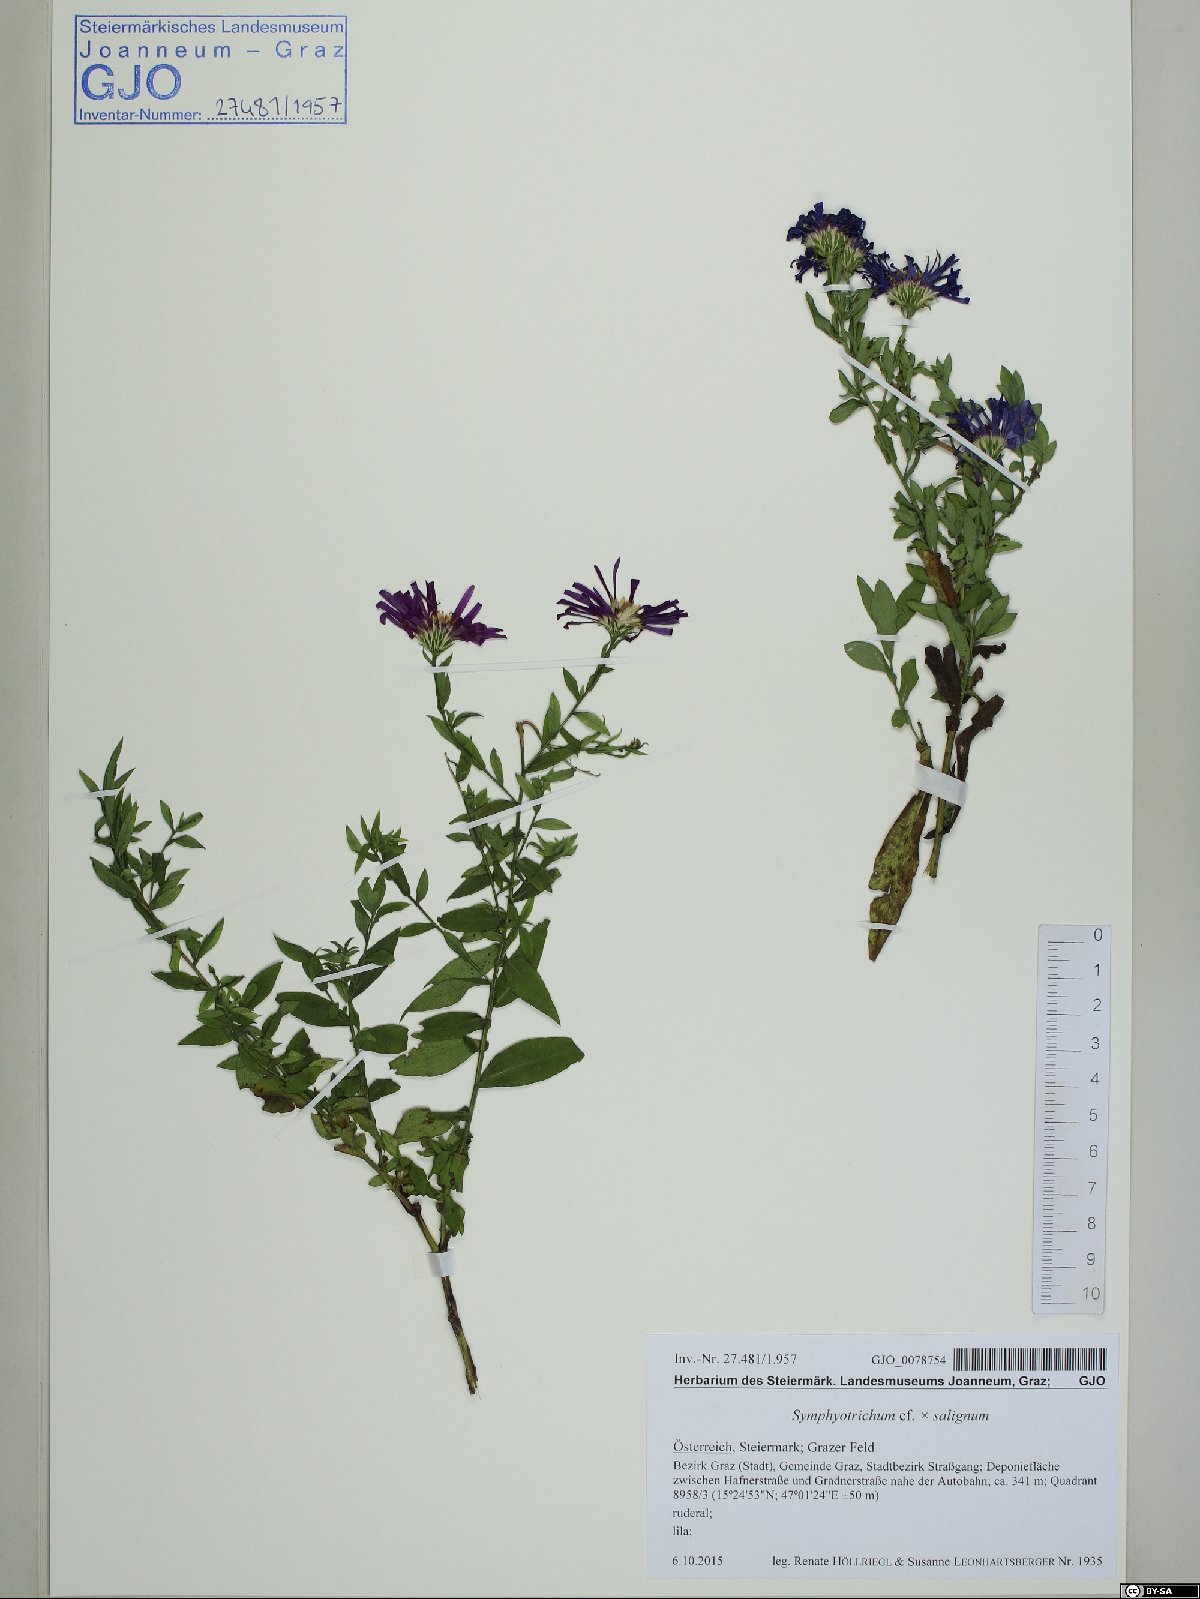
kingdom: Plantae
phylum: Tracheophyta
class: Magnoliopsida
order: Asterales
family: Asteraceae
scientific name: Asteraceae
